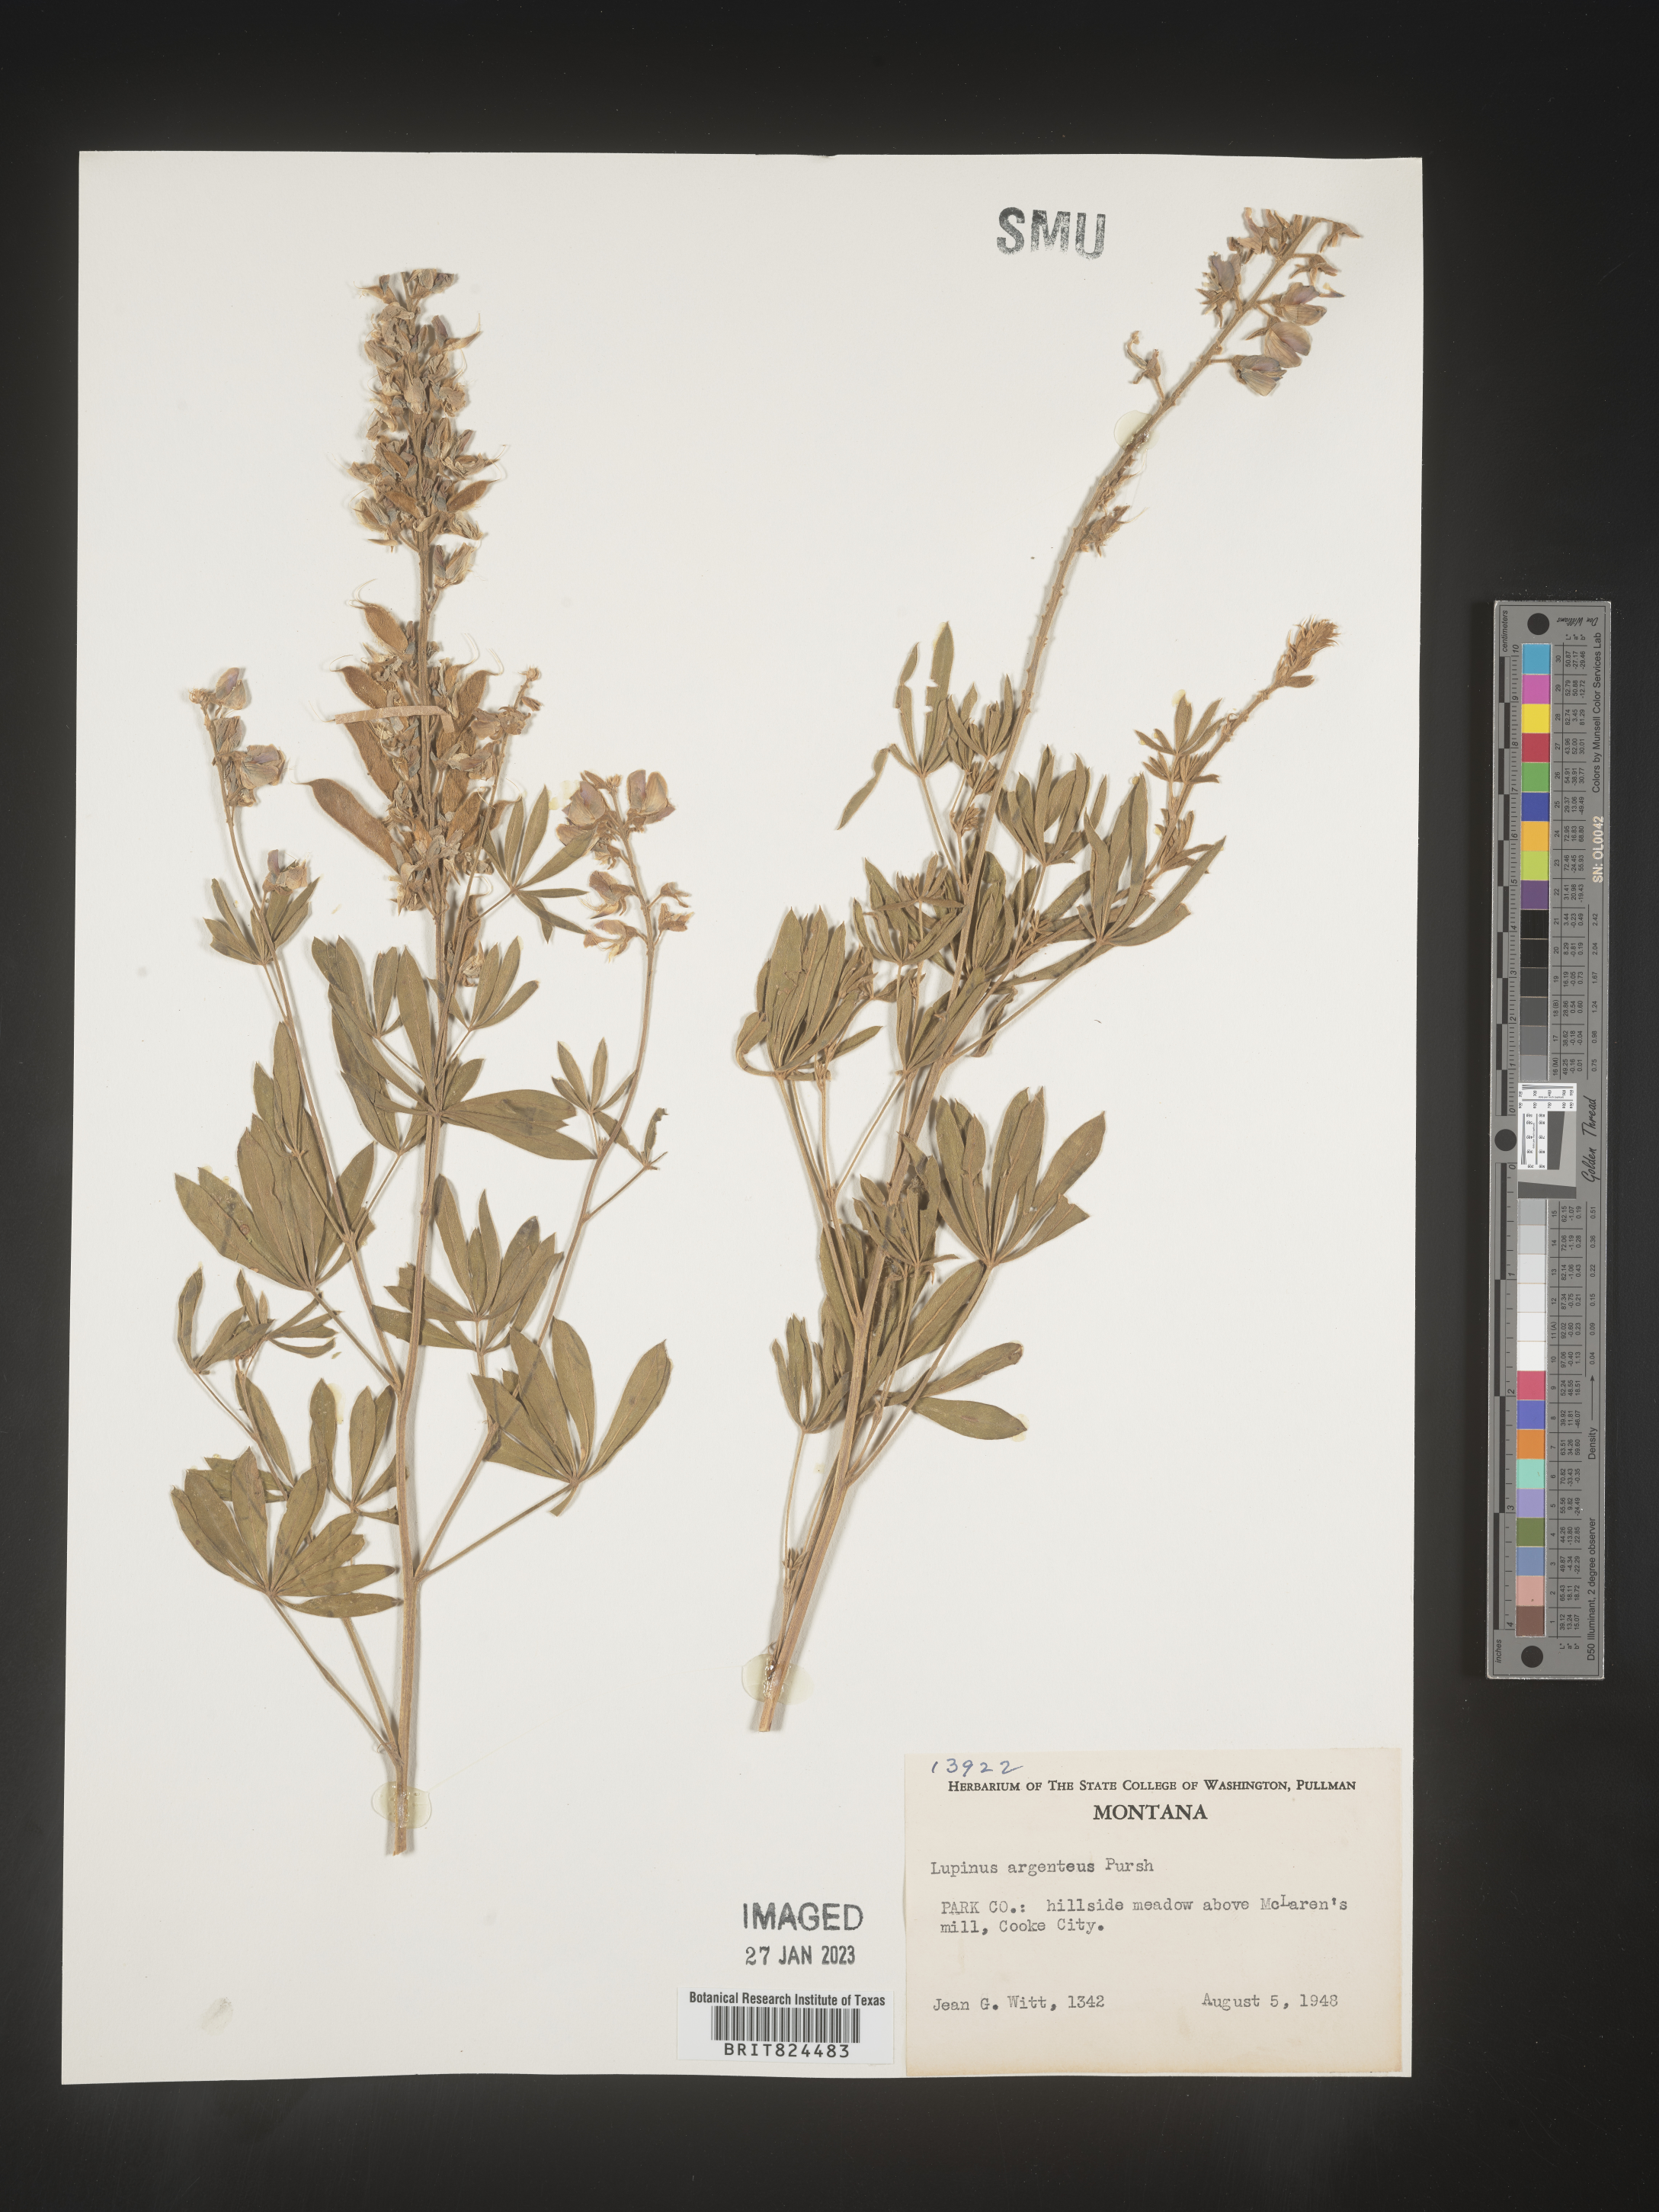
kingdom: Plantae
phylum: Tracheophyta
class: Magnoliopsida
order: Fabales
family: Fabaceae
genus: Lupinus
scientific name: Lupinus argenteus
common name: Silvery lupine
